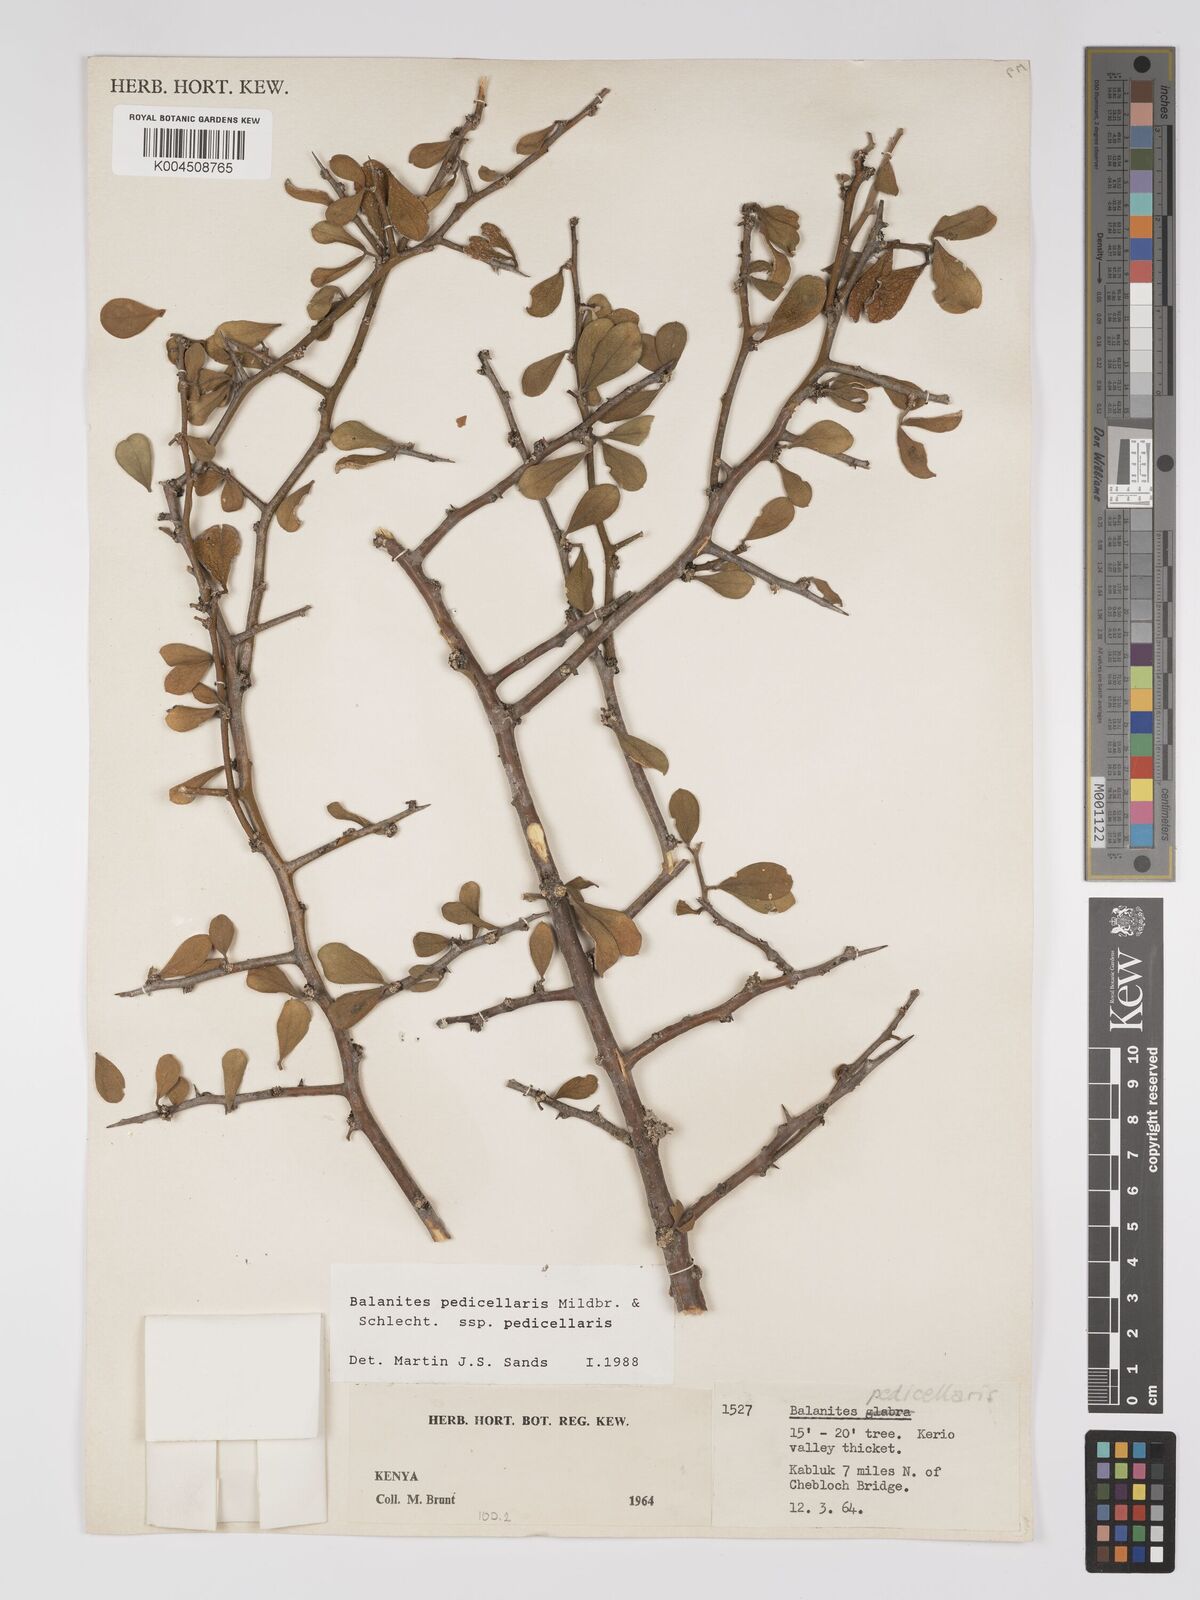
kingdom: Plantae
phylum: Tracheophyta
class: Magnoliopsida
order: Zygophyllales
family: Zygophyllaceae
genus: Balanites
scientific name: Balanites pedicellaris
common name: Small green-thorn
